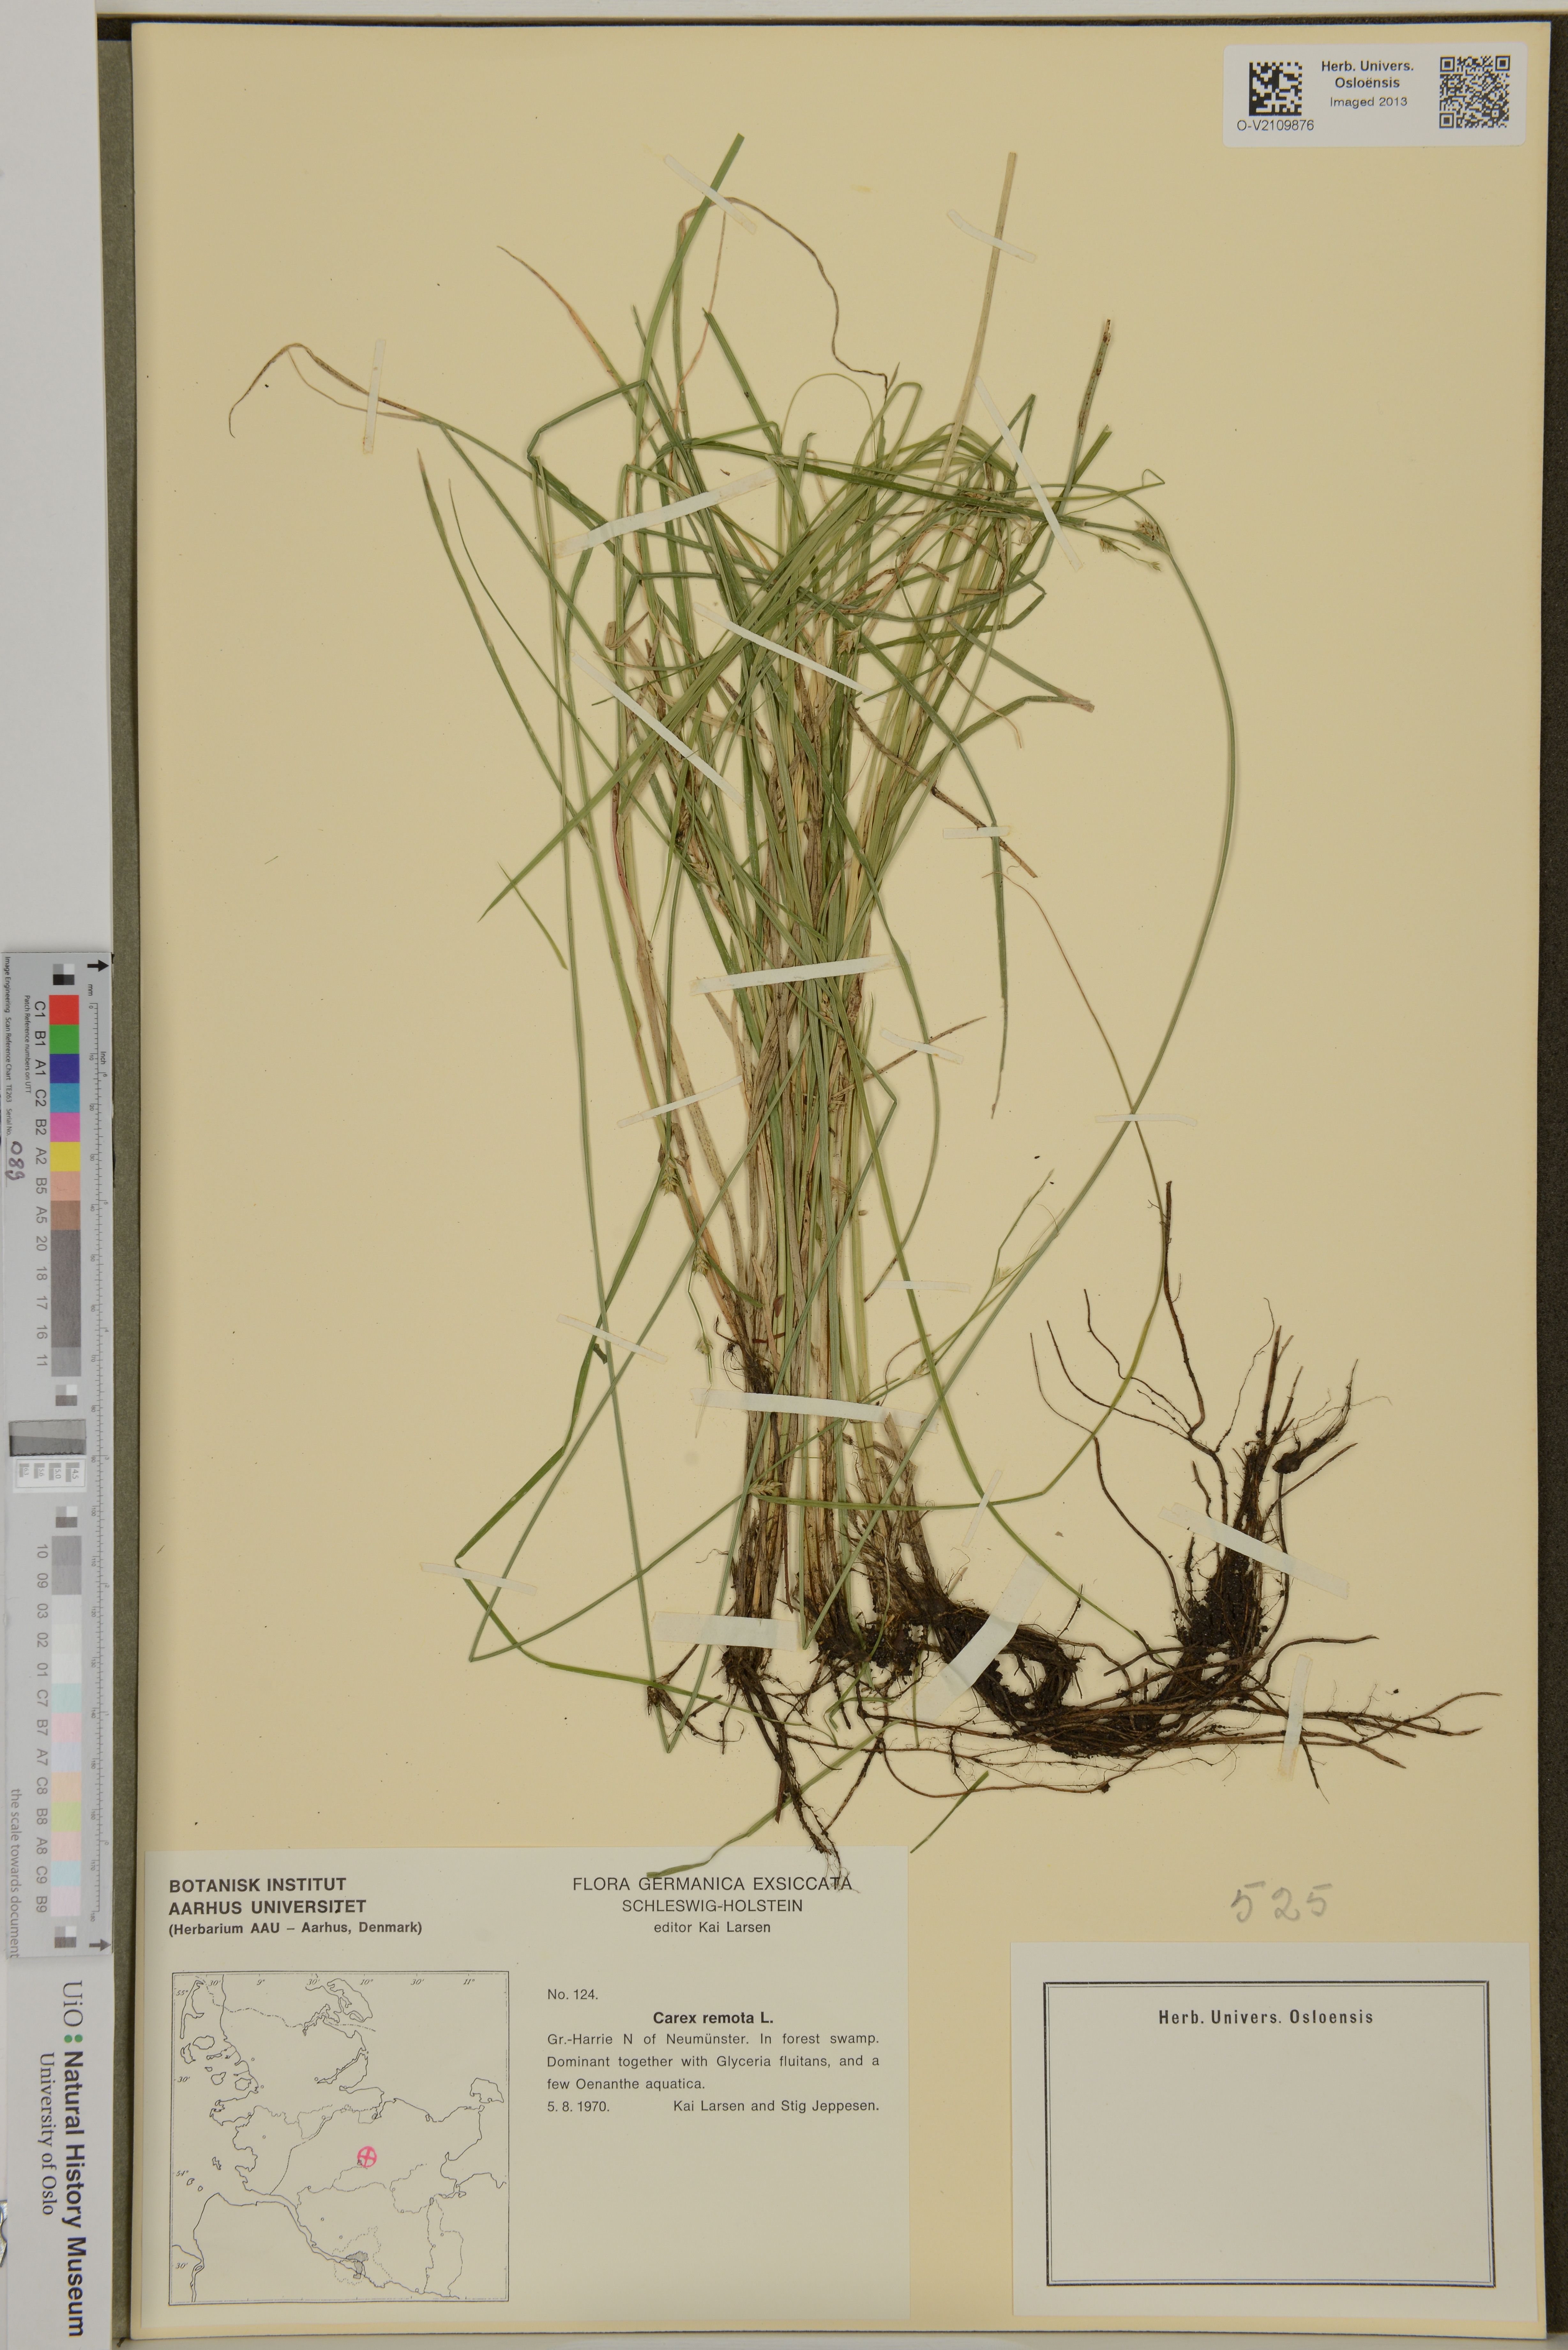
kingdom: Plantae
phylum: Tracheophyta
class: Liliopsida
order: Poales
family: Cyperaceae
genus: Carex
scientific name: Carex remota
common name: Remote sedge
